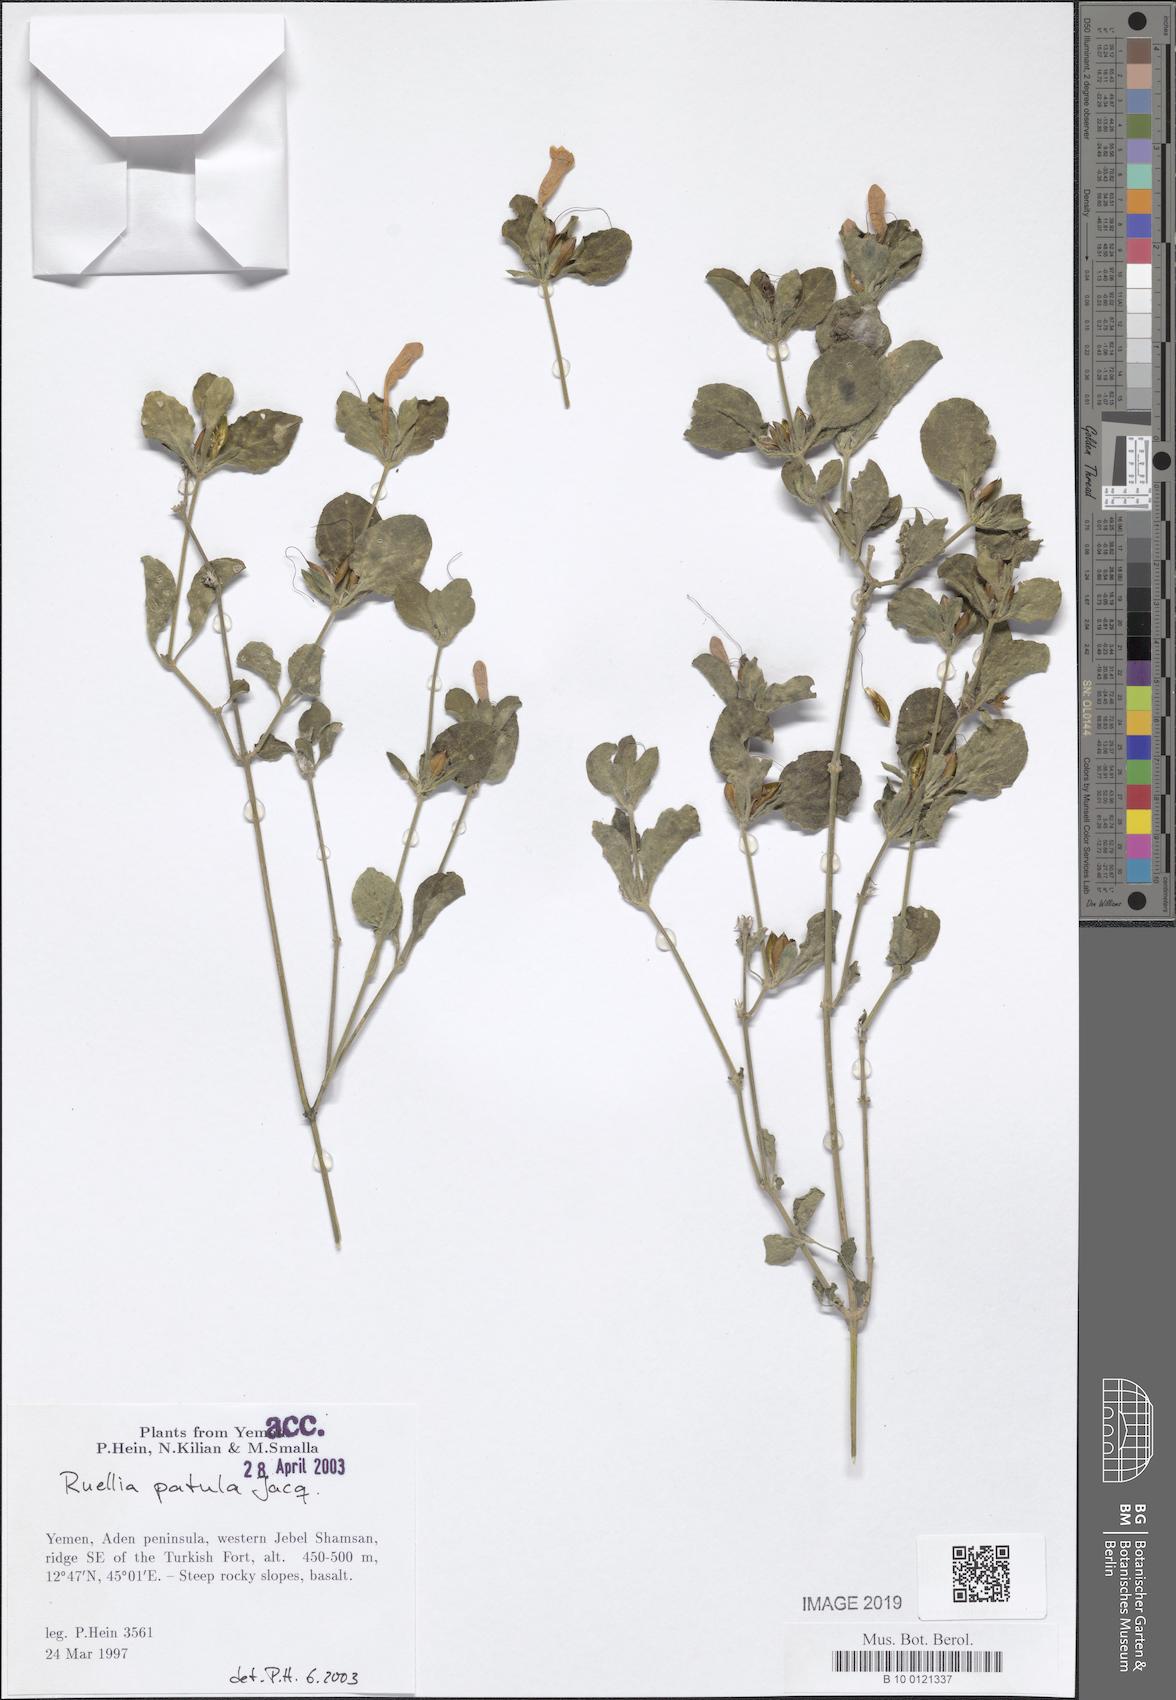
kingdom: Plantae
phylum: Tracheophyta
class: Magnoliopsida
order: Lamiales
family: Acanthaceae
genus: Ruellia
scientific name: Ruellia patula
